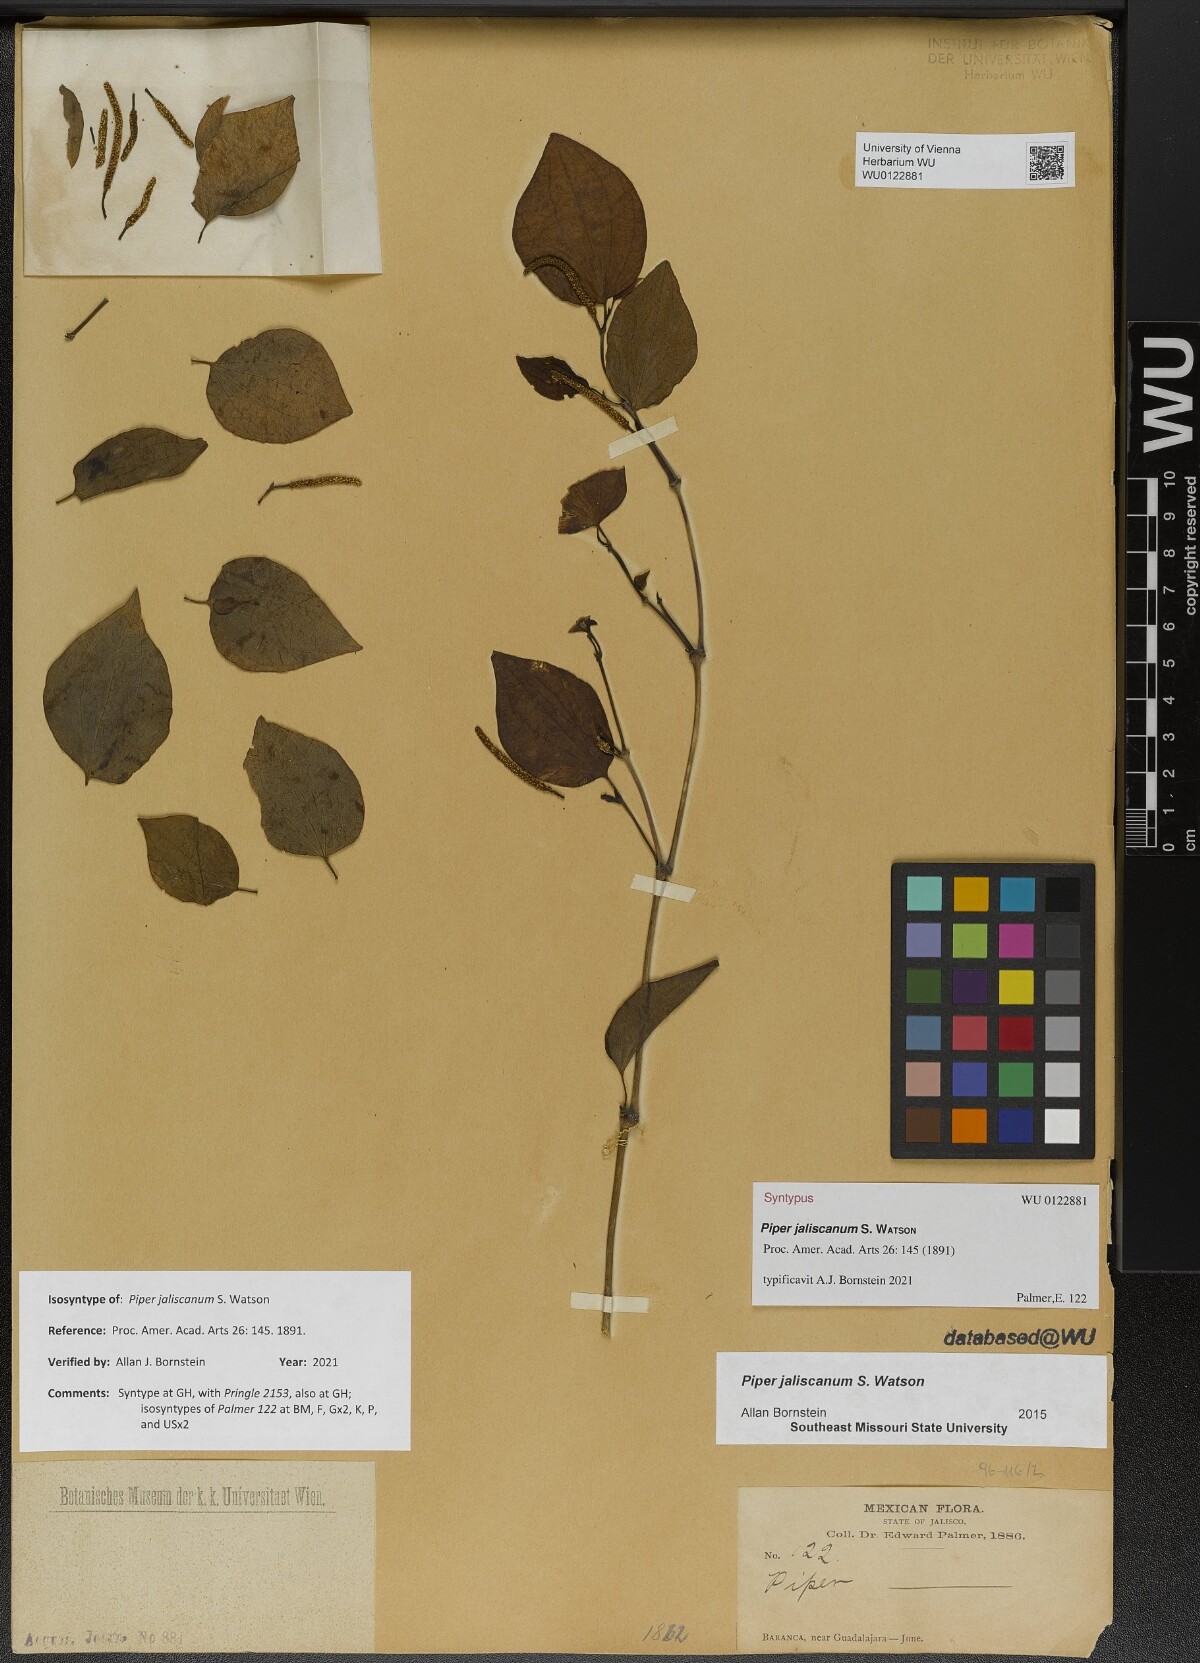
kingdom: Plantae
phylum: Tracheophyta
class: Magnoliopsida
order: Piperales
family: Piperaceae
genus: Piper
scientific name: Piper jaliscanum
